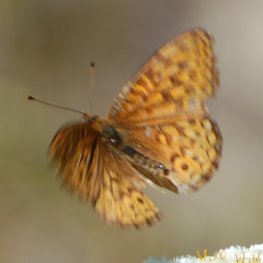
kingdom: Animalia
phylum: Arthropoda
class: Insecta
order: Lepidoptera
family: Nymphalidae
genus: Speyeria
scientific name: Speyeria atlantis
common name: Atlantis Fritillary
